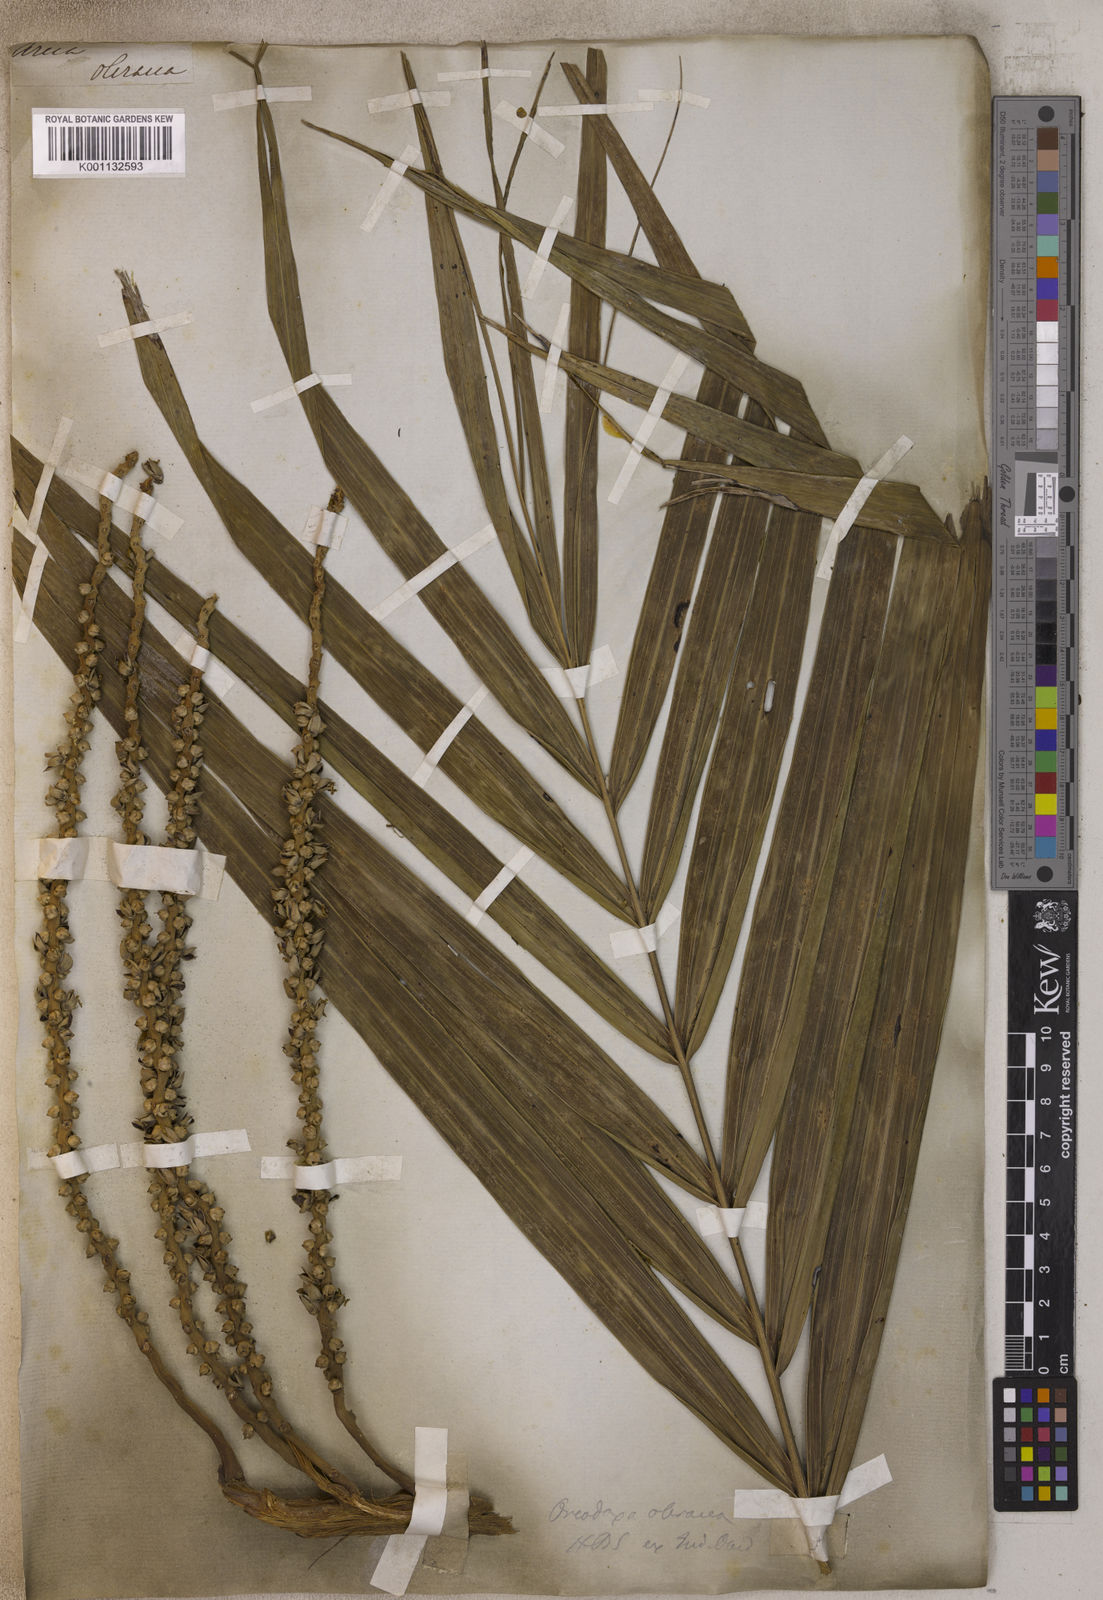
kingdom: Plantae
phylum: Tracheophyta
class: Liliopsida
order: Arecales
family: Arecaceae
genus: Roystonea
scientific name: Roystonea oleracea
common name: South american royal palm
